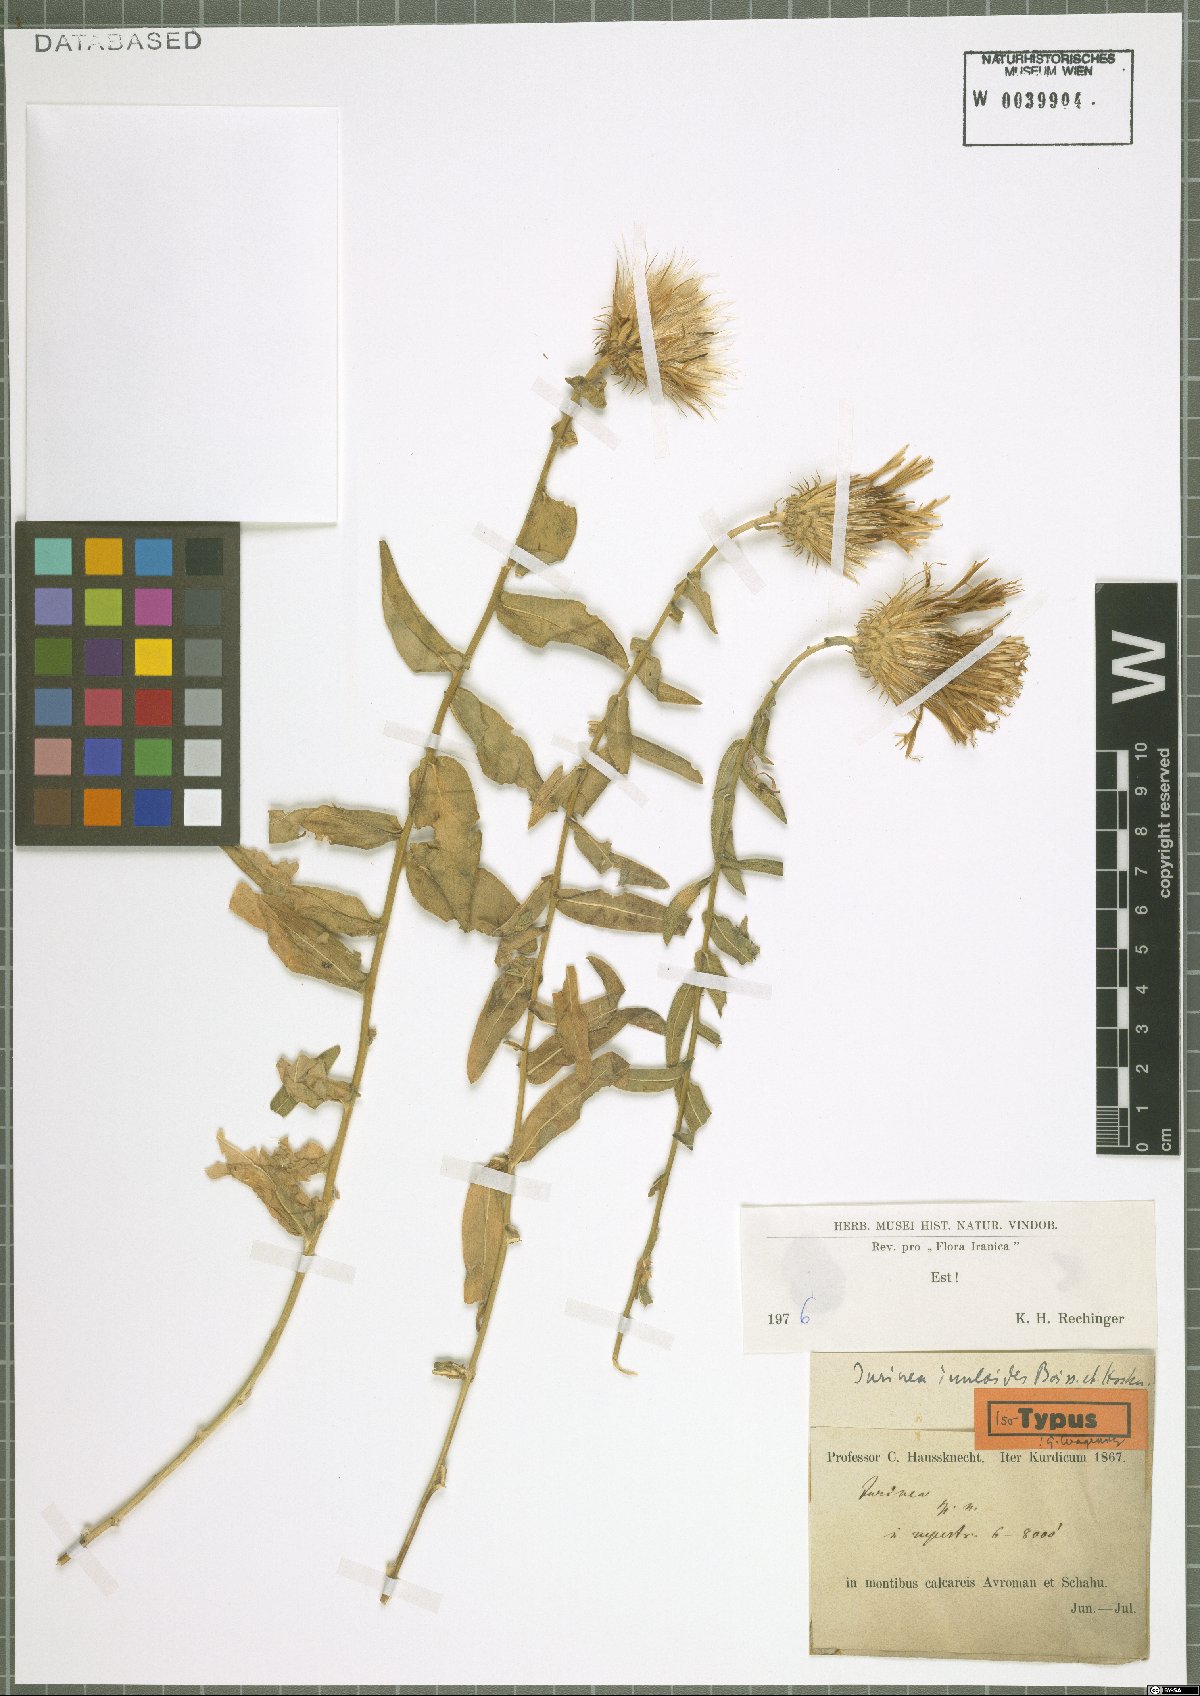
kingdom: Plantae
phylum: Tracheophyta
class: Magnoliopsida
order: Asterales
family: Asteraceae
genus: Jurinea
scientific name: Jurinea inuloides
